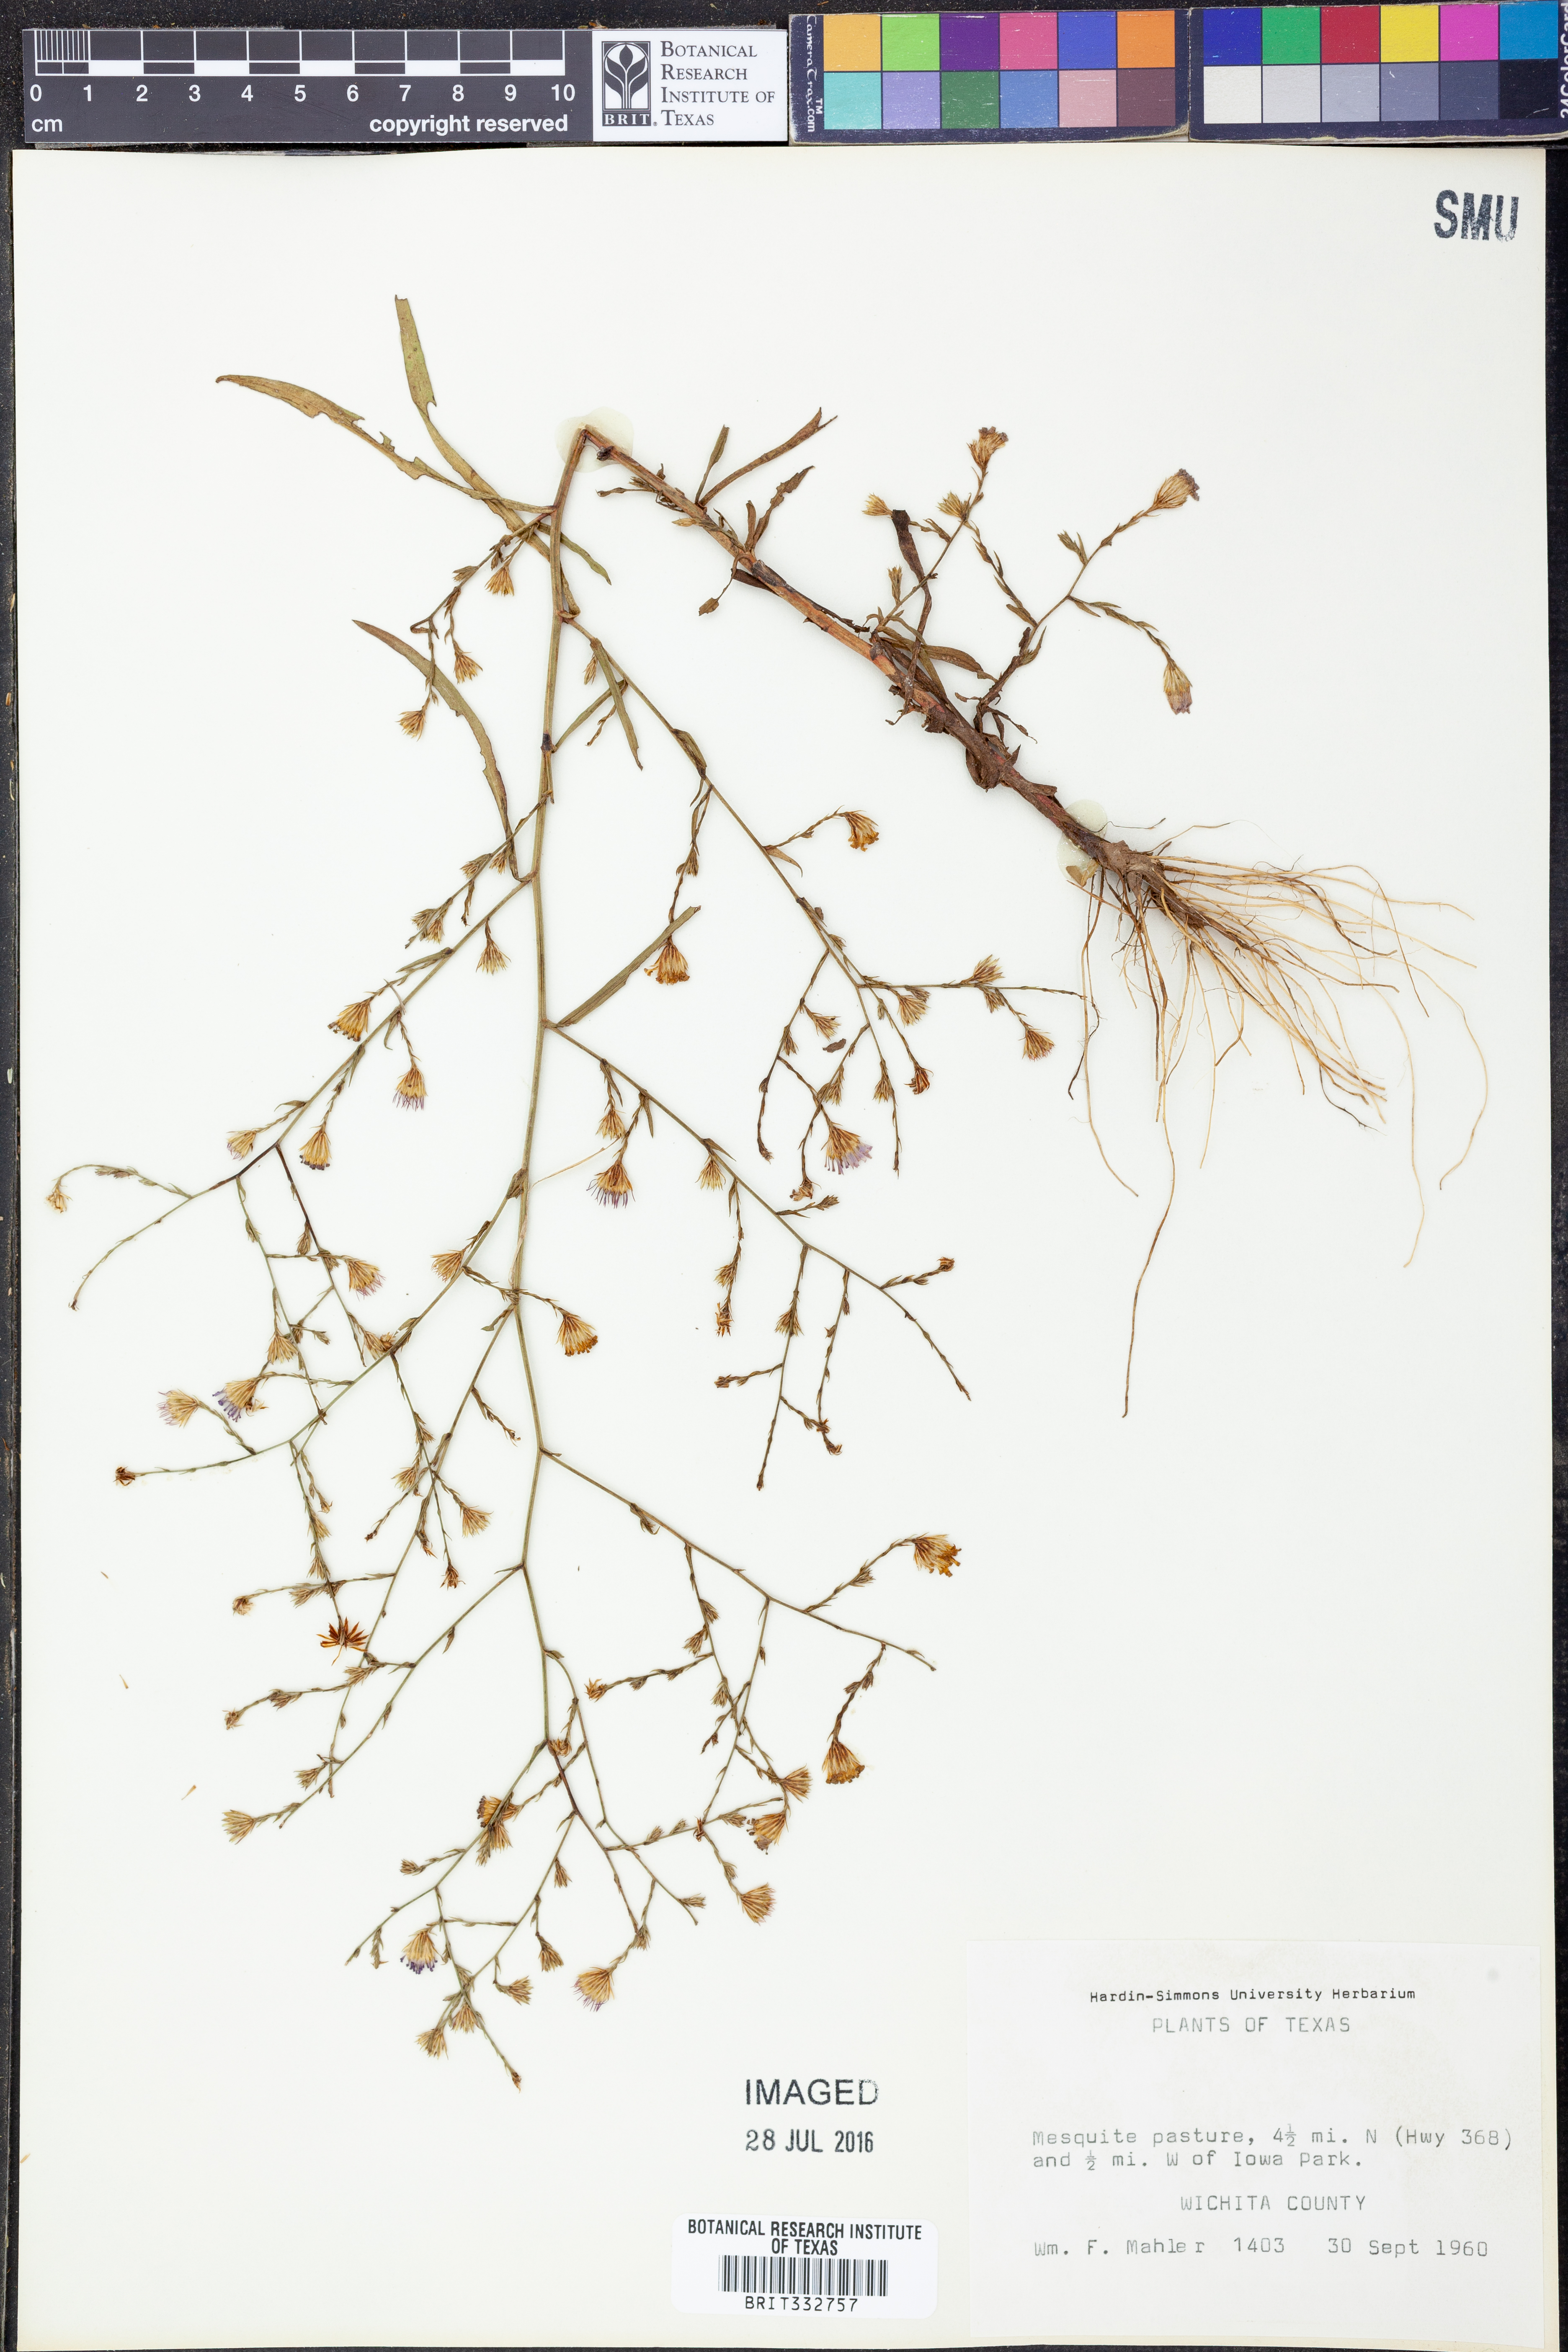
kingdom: Plantae
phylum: Tracheophyta
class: Magnoliopsida
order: Asterales
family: Asteraceae
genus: Symphyotrichum
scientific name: Symphyotrichum divaricatum
